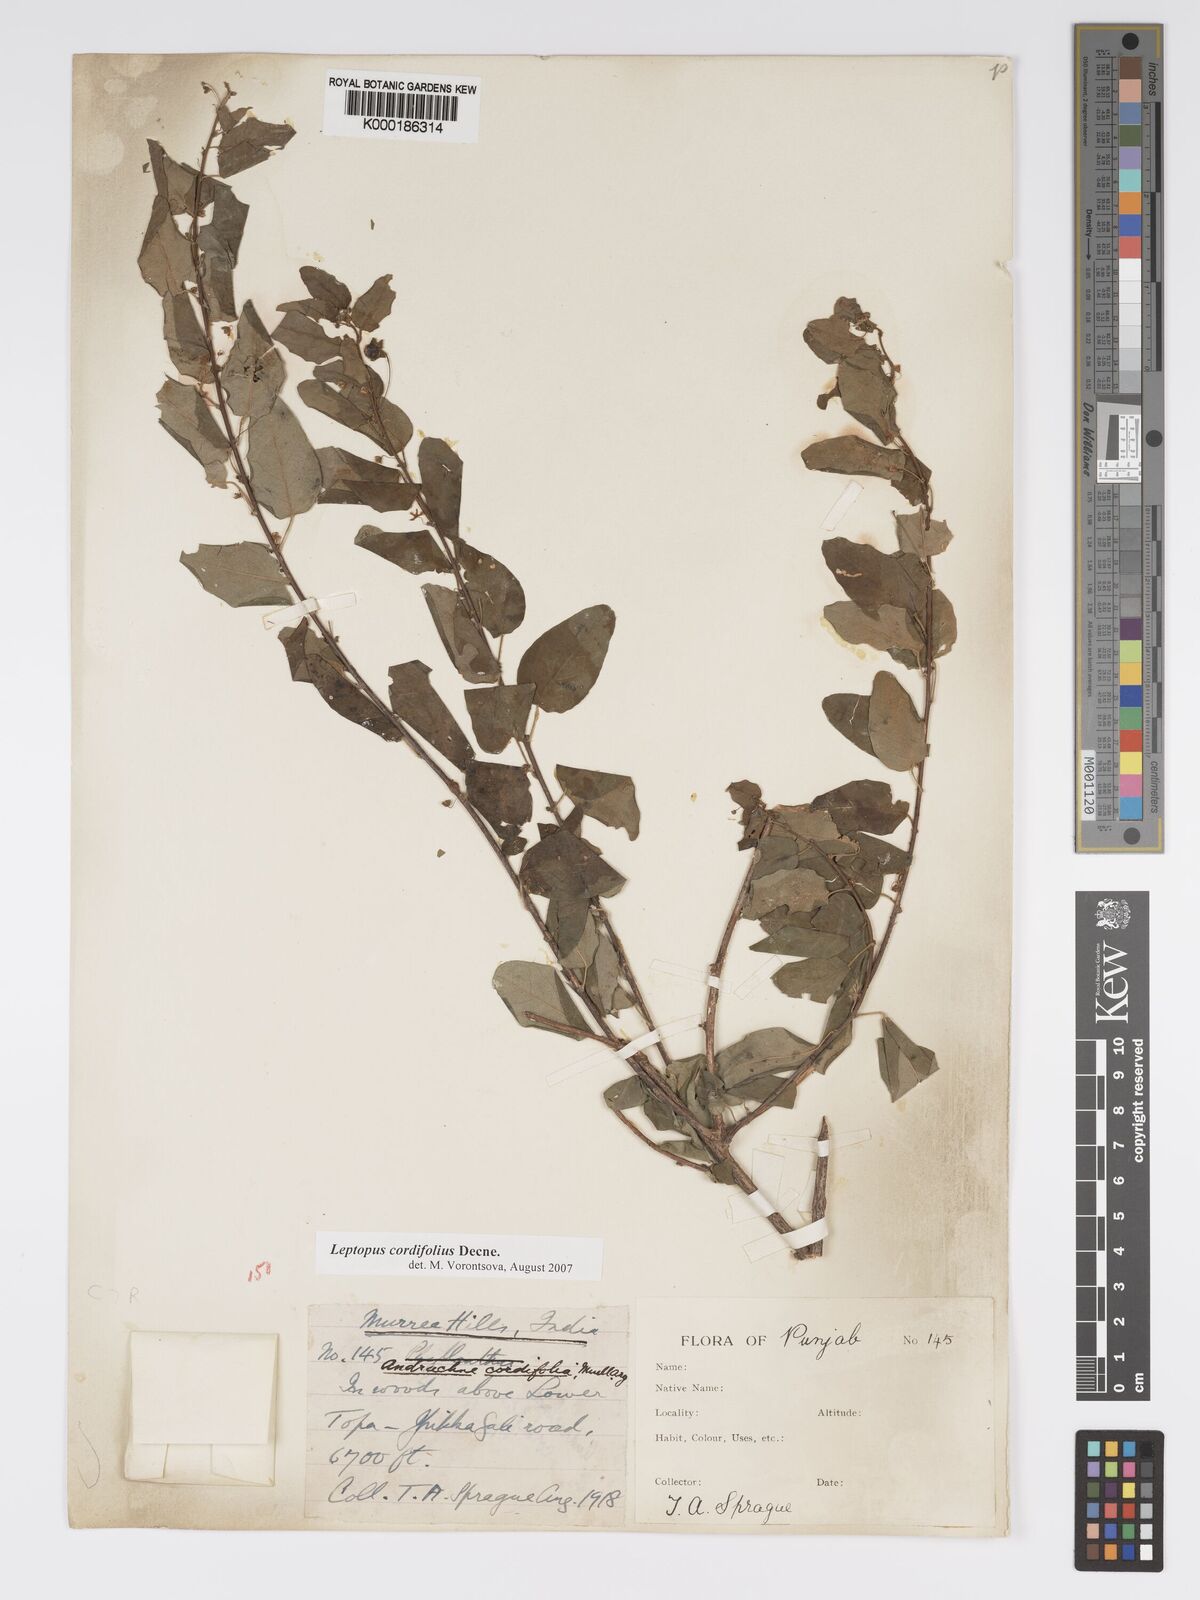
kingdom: Plantae
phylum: Tracheophyta
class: Magnoliopsida
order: Malpighiales
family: Phyllanthaceae
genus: Leptopus
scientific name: Leptopus cordifolius
